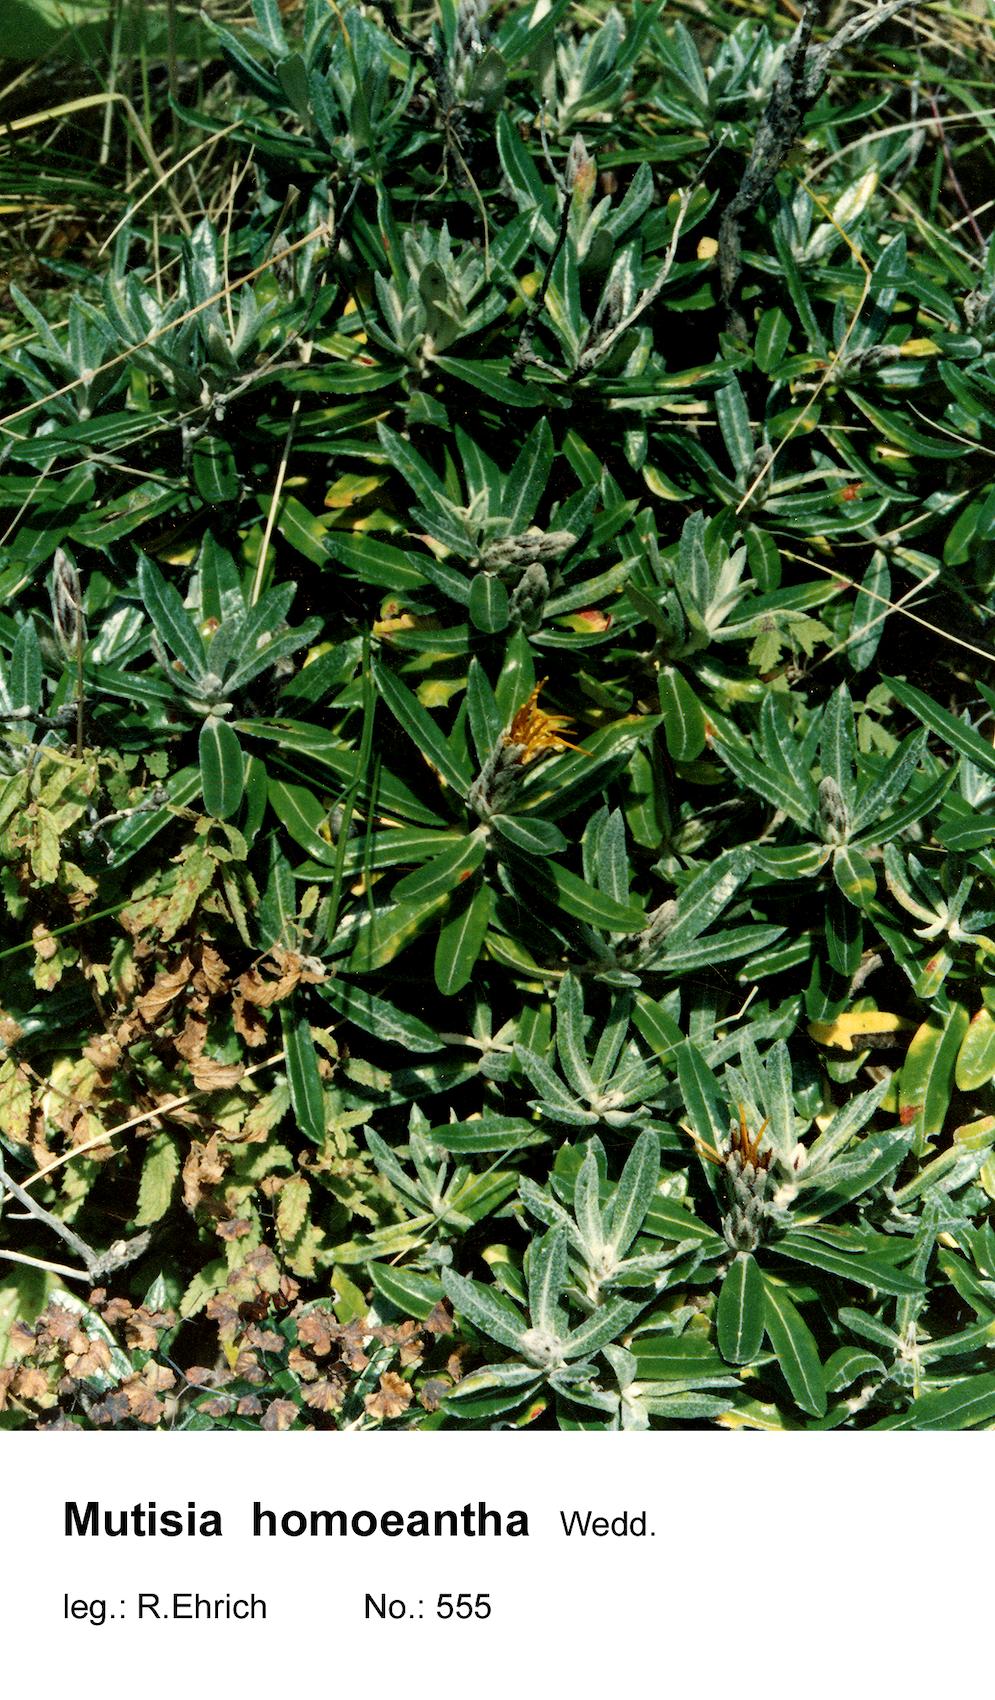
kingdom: Plantae
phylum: Tracheophyta
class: Magnoliopsida
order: Asterales
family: Asteraceae
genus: Mutisia
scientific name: Mutisia homoeantha
